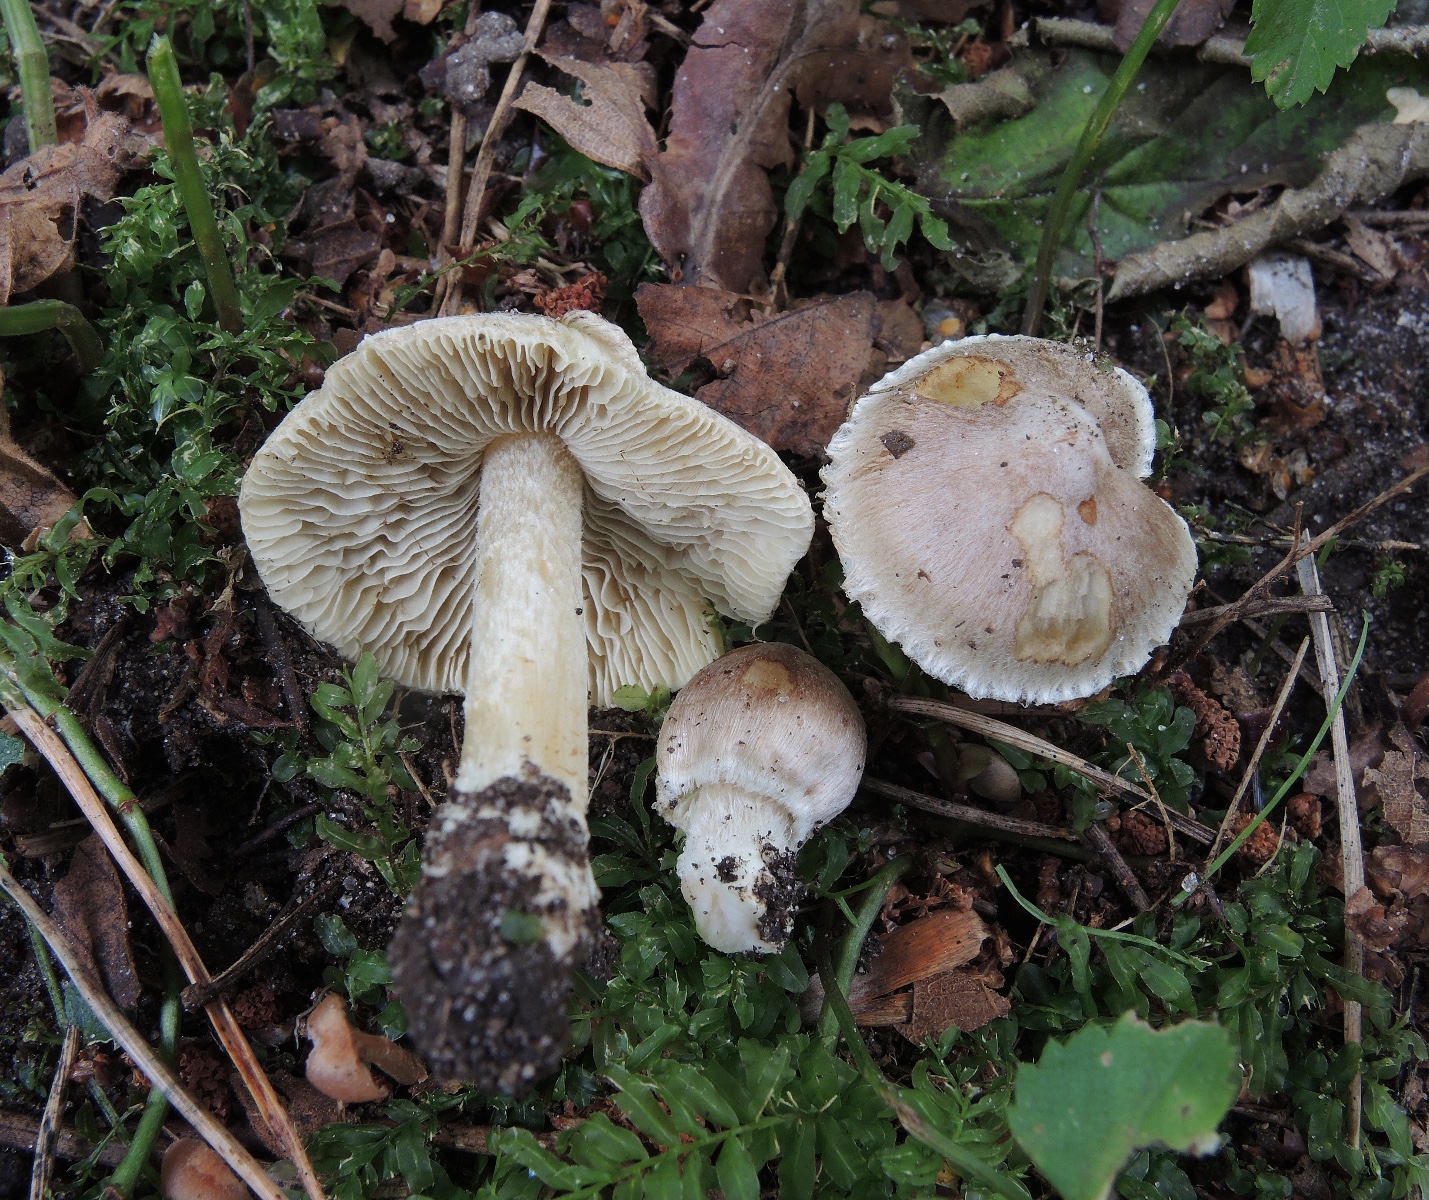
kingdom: Fungi
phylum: Basidiomycota
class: Agaricomycetes
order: Agaricales
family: Inocybaceae
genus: Pseudosperma
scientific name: Pseudosperma rimosum
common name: gulbladet trævlhat
